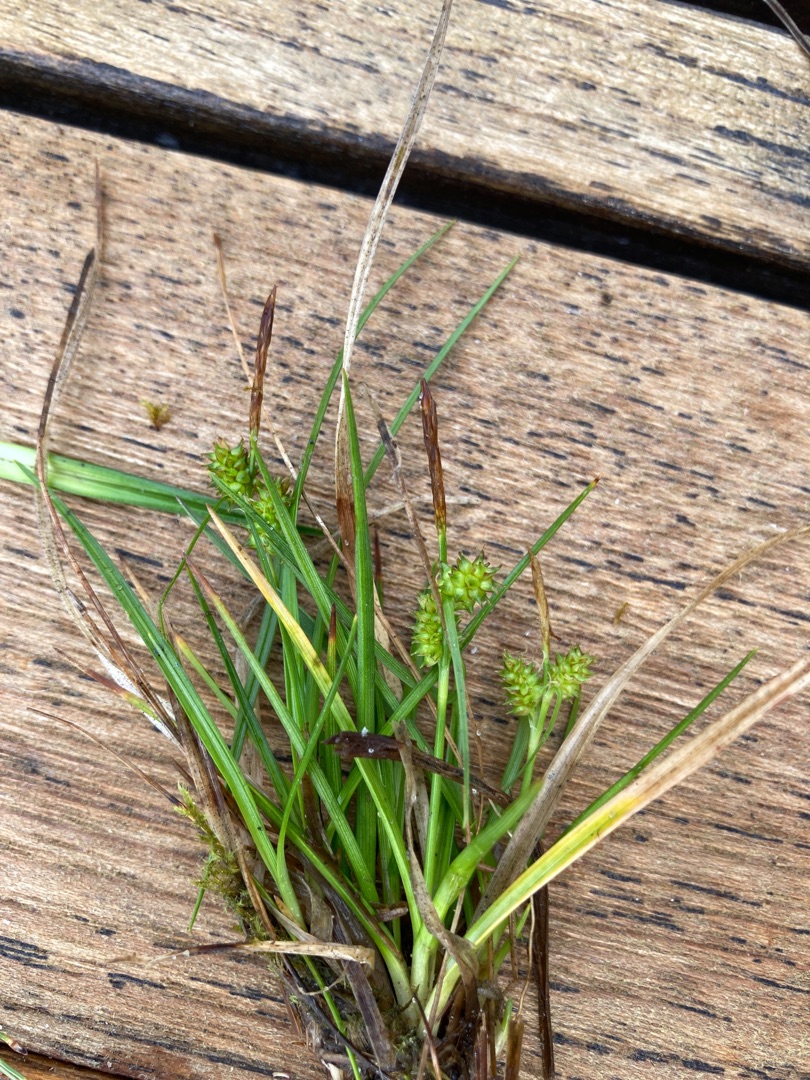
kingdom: Plantae
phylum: Tracheophyta
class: Liliopsida
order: Poales
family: Cyperaceae
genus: Carex
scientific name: Carex oederi
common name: Dværg-star
